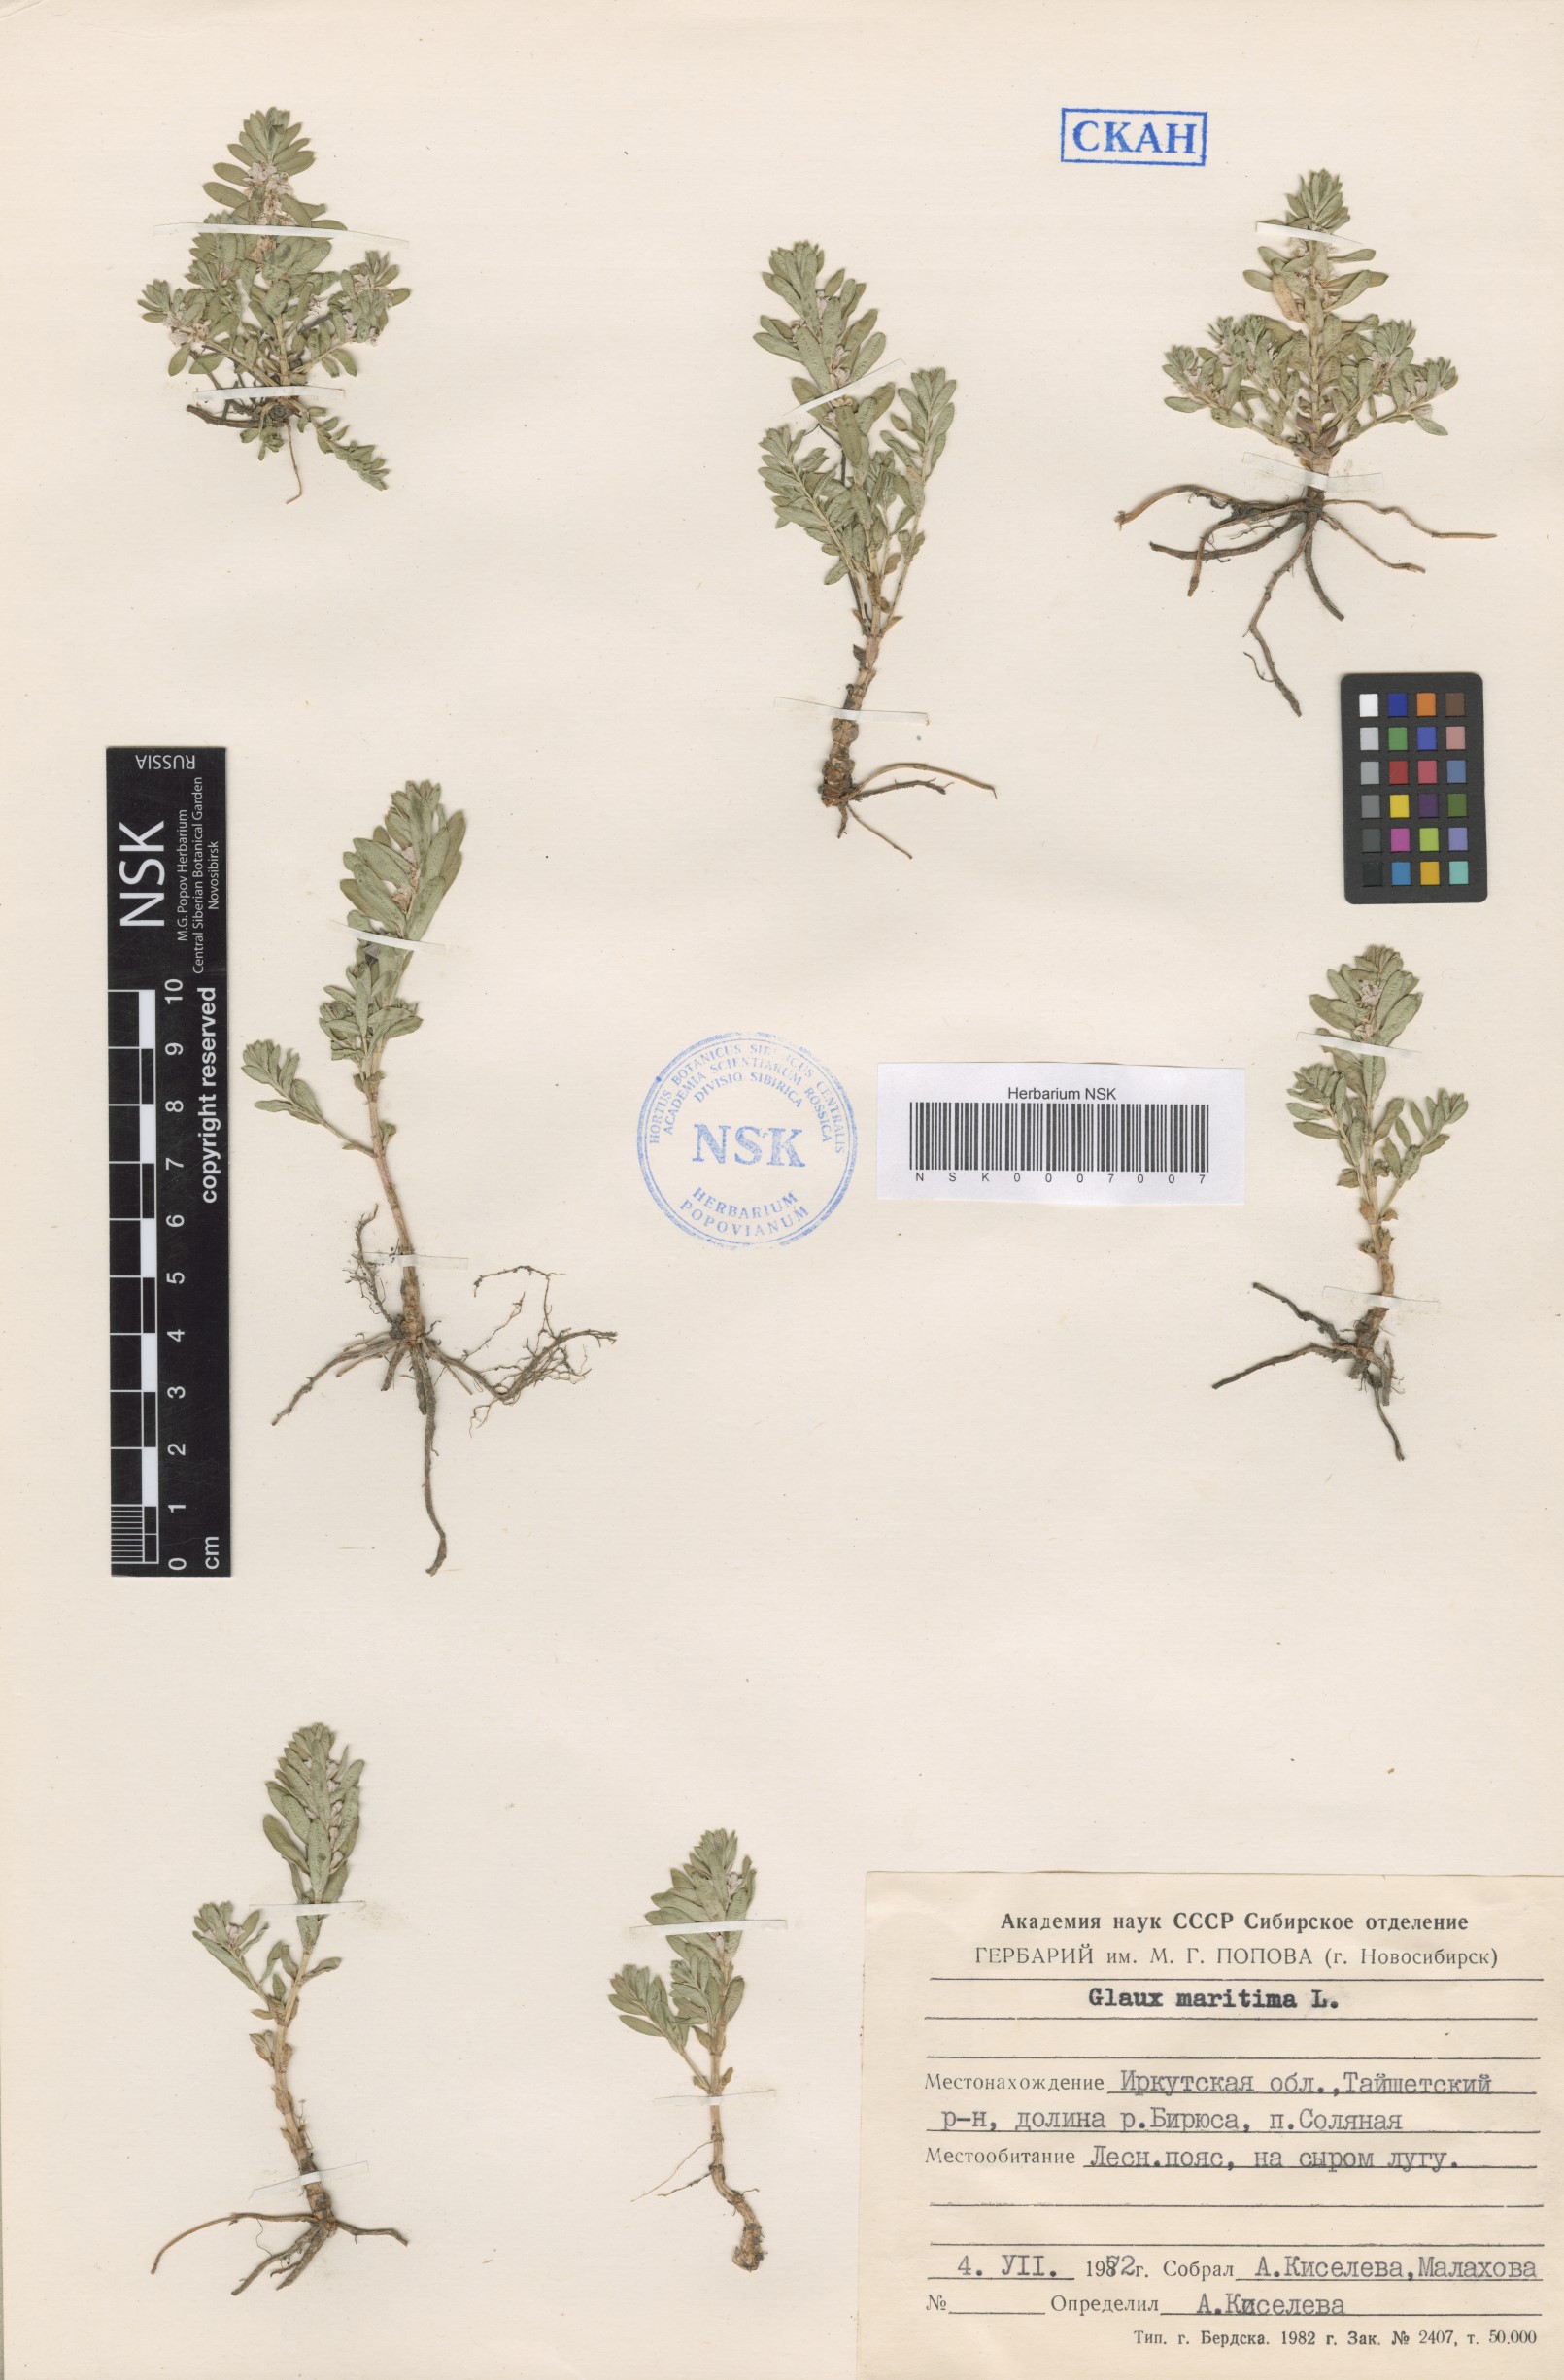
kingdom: Plantae
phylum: Tracheophyta
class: Magnoliopsida
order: Ericales
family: Primulaceae
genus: Lysimachia
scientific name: Lysimachia maritima
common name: Sea milkwort
